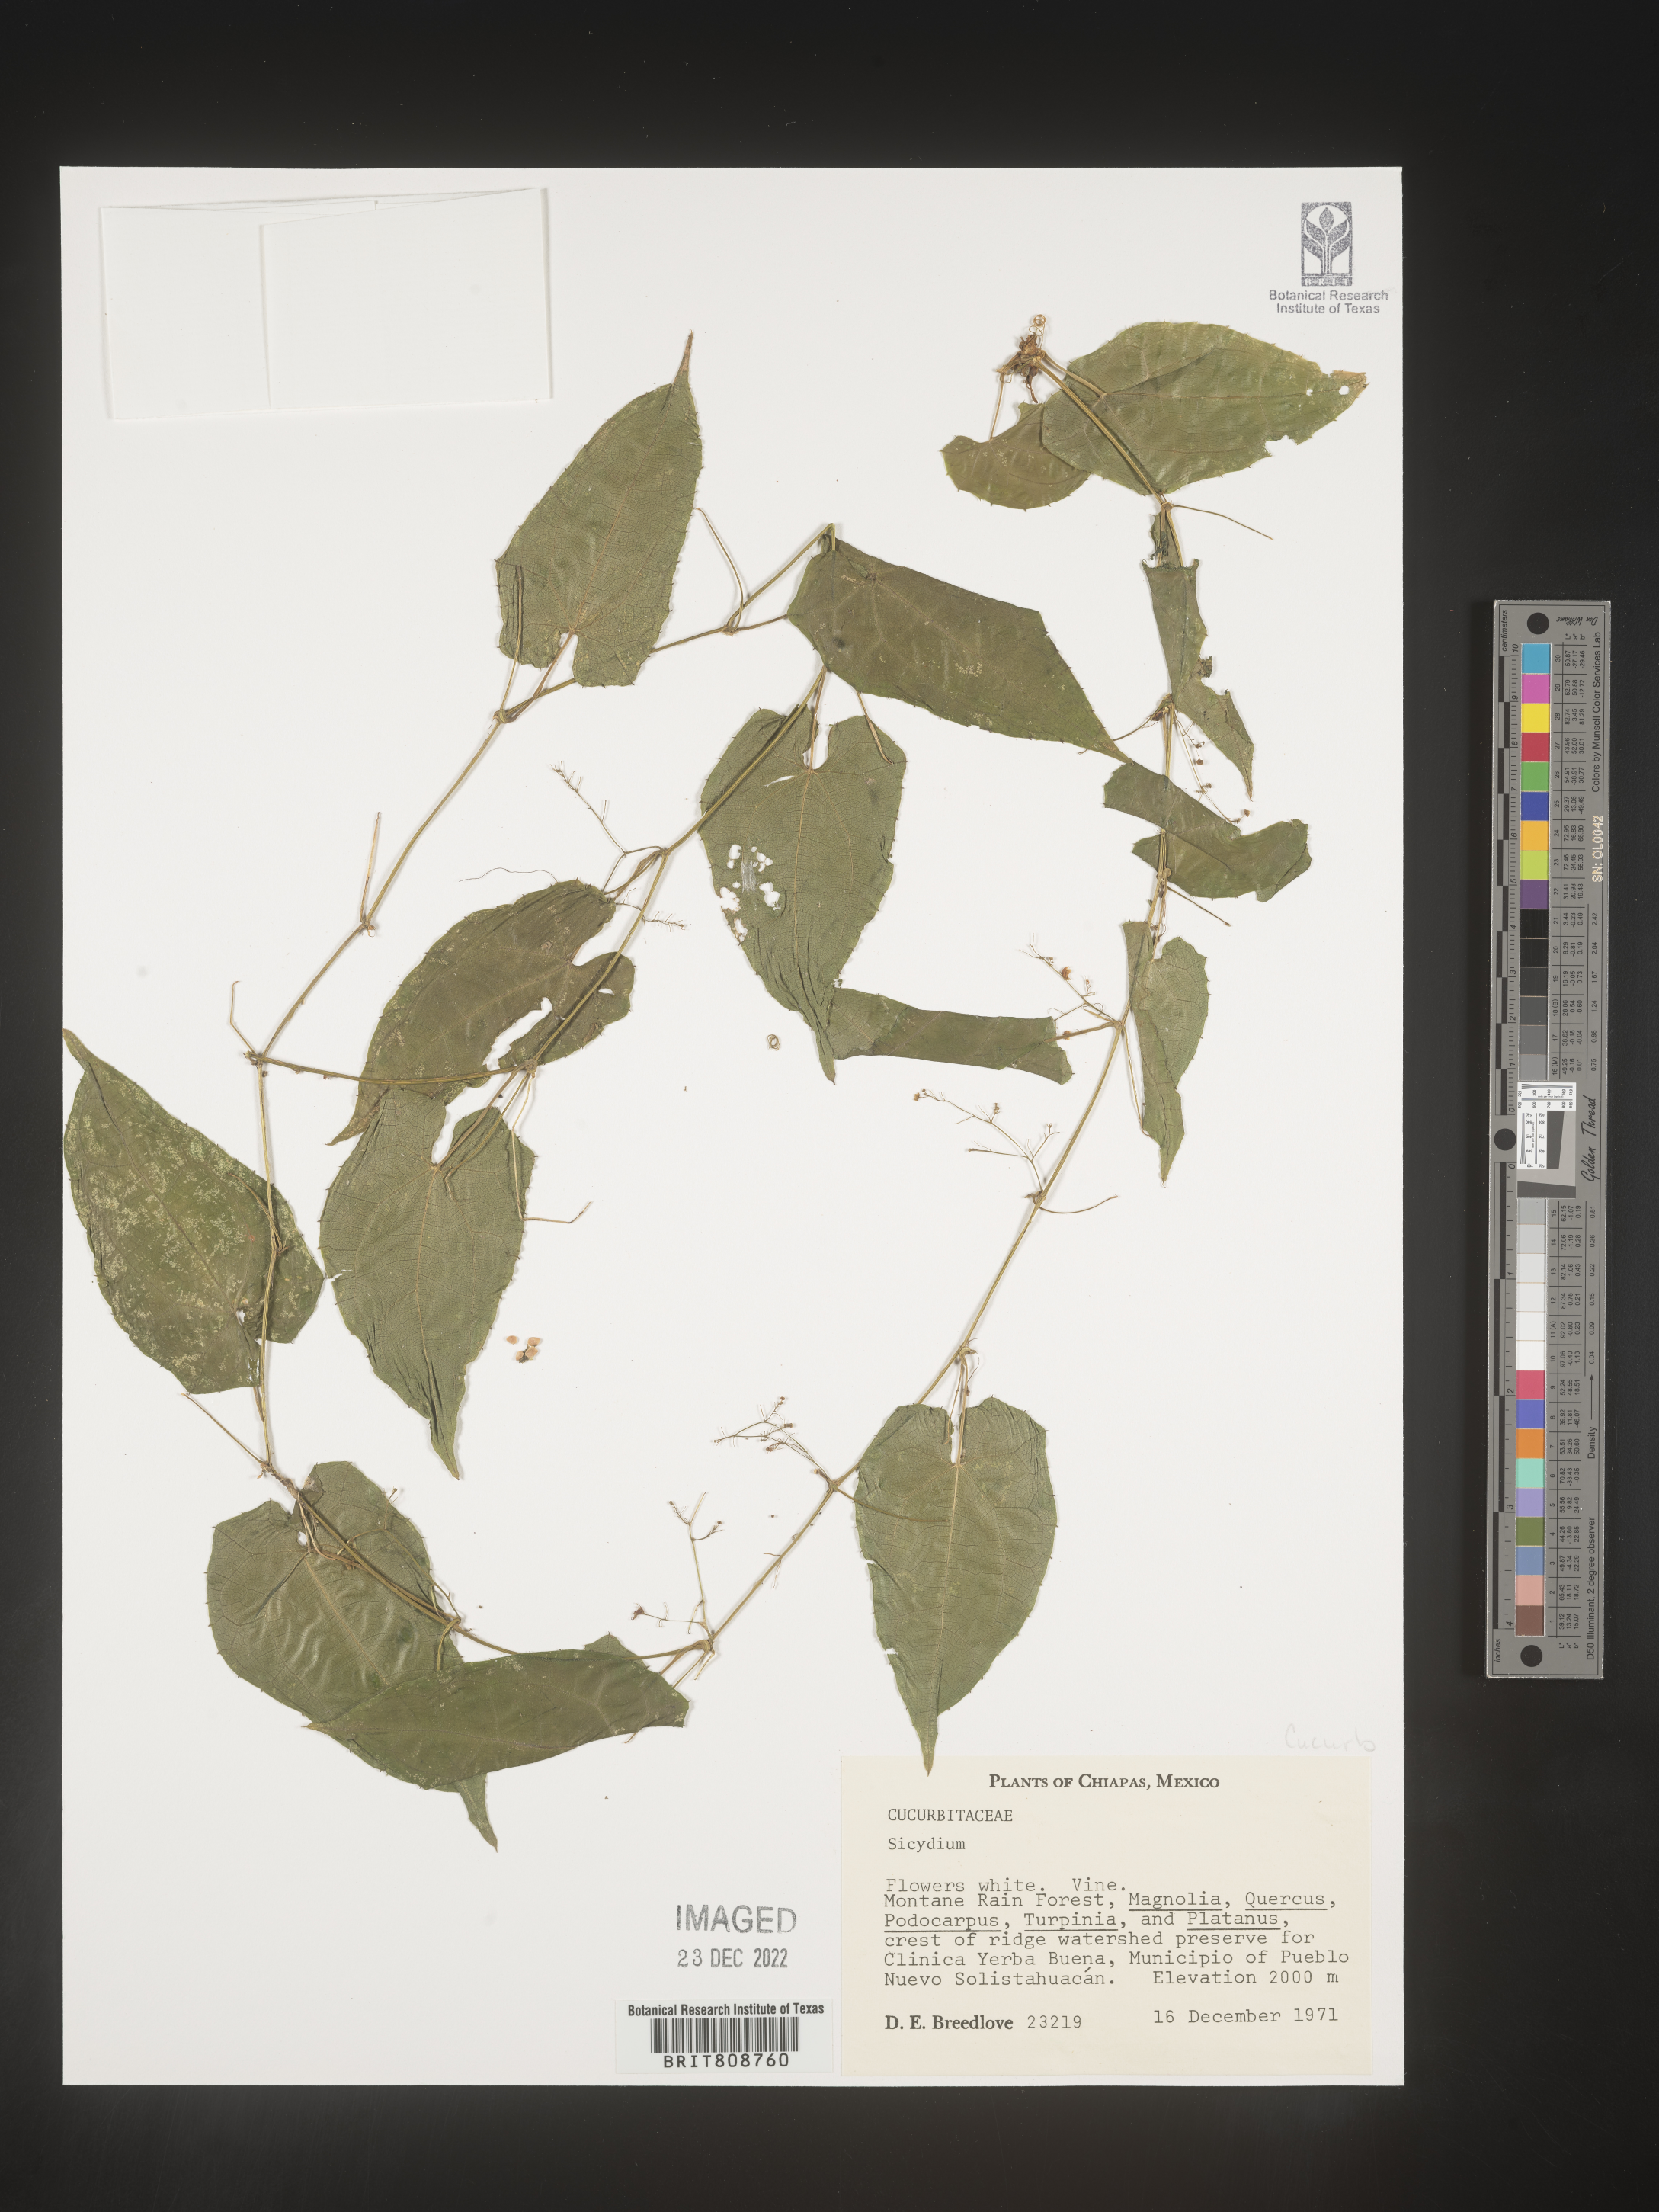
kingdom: Plantae
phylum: Tracheophyta
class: Magnoliopsida
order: Cucurbitales
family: Cucurbitaceae
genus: Sicydium
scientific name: Sicydium
